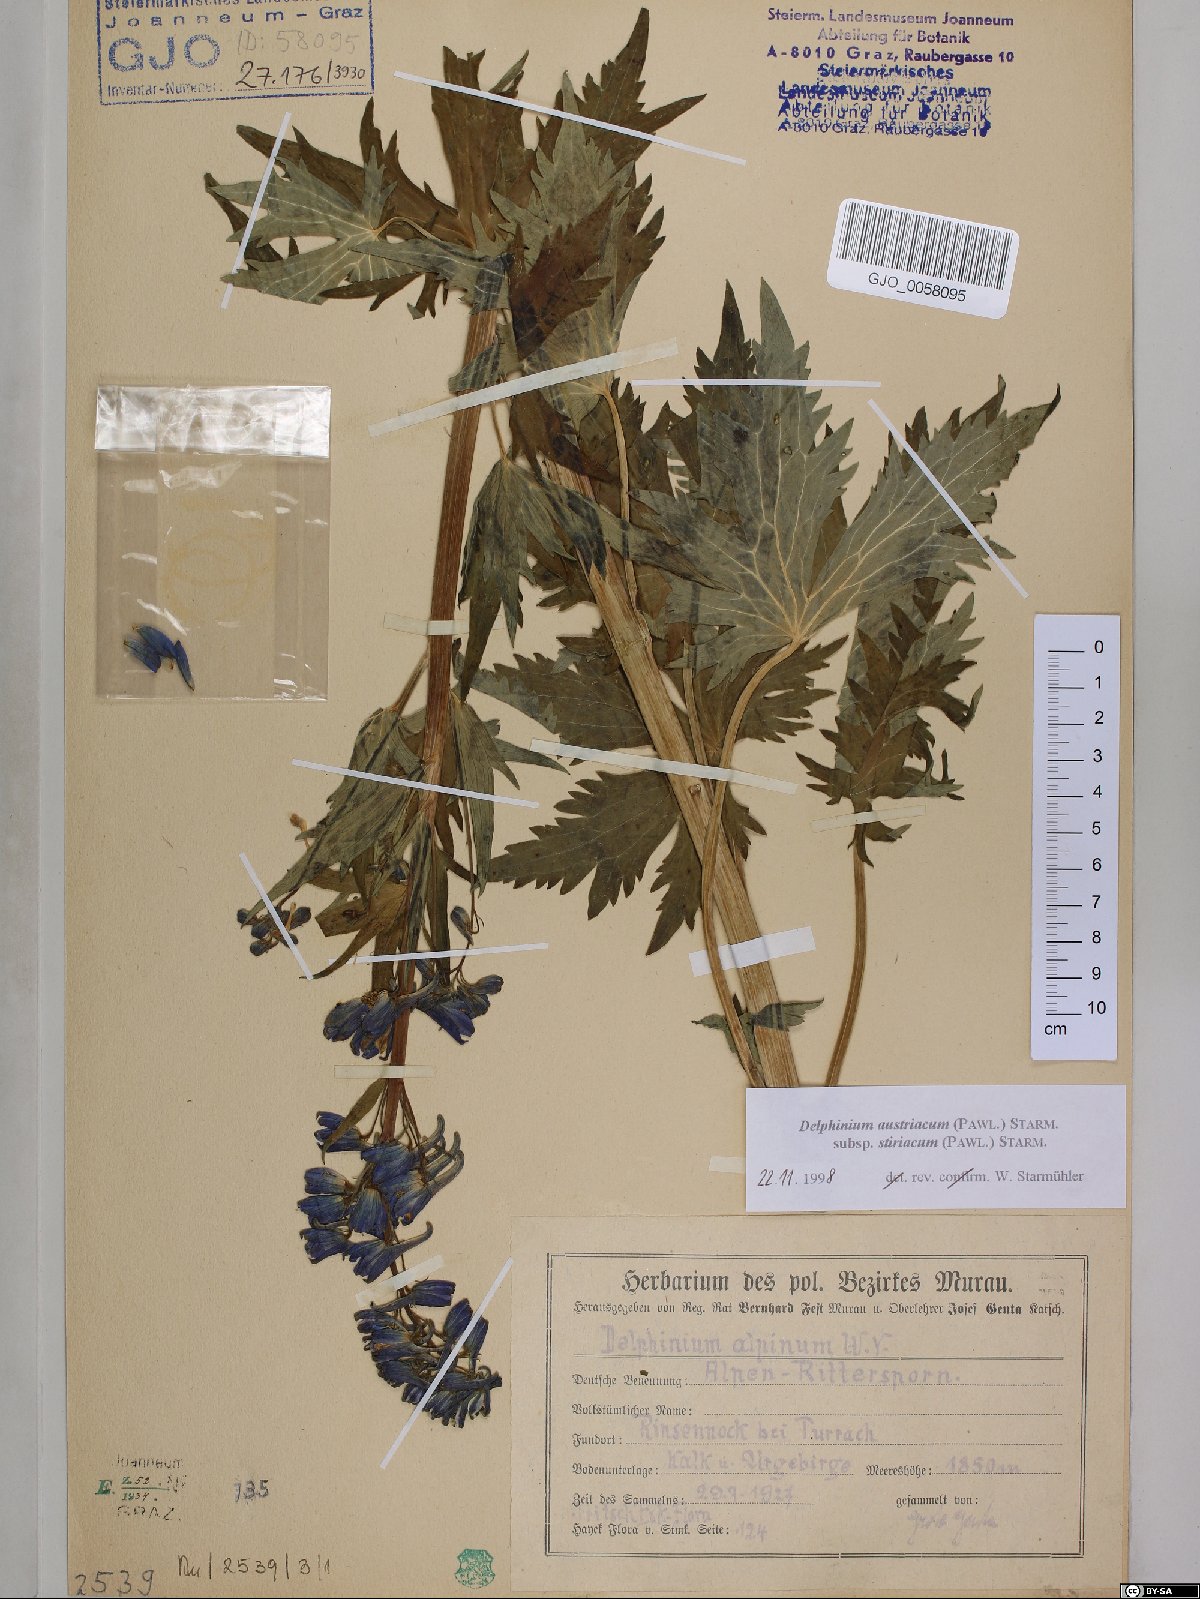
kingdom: Plantae
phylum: Tracheophyta
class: Magnoliopsida
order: Ranunculales
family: Ranunculaceae
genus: Delphinium
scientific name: Delphinium austriacum
